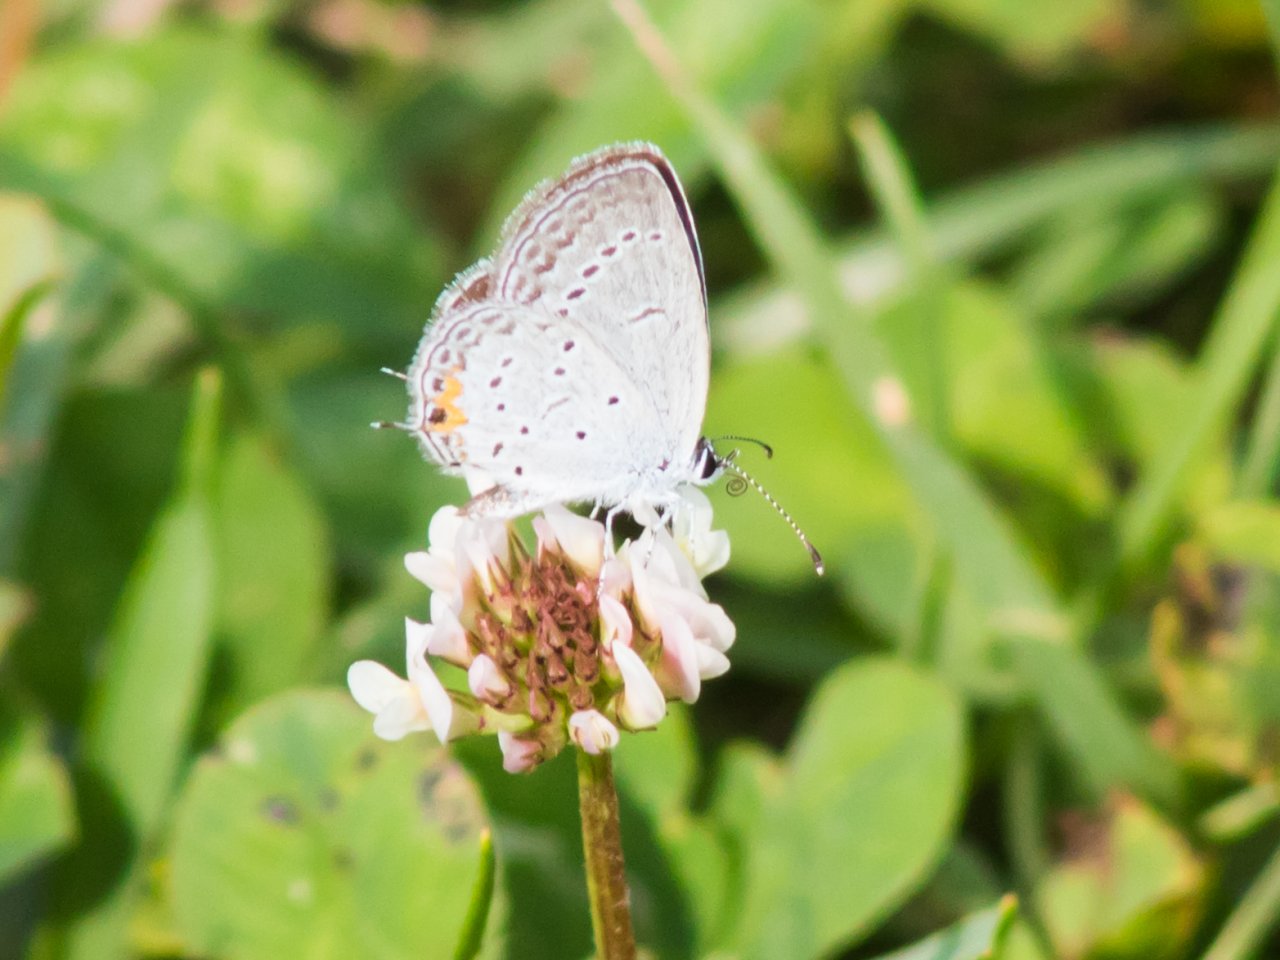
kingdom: Animalia
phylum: Arthropoda
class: Insecta
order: Lepidoptera
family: Lycaenidae
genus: Elkalyce
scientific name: Elkalyce comyntas
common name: Eastern Tailed-Blue
